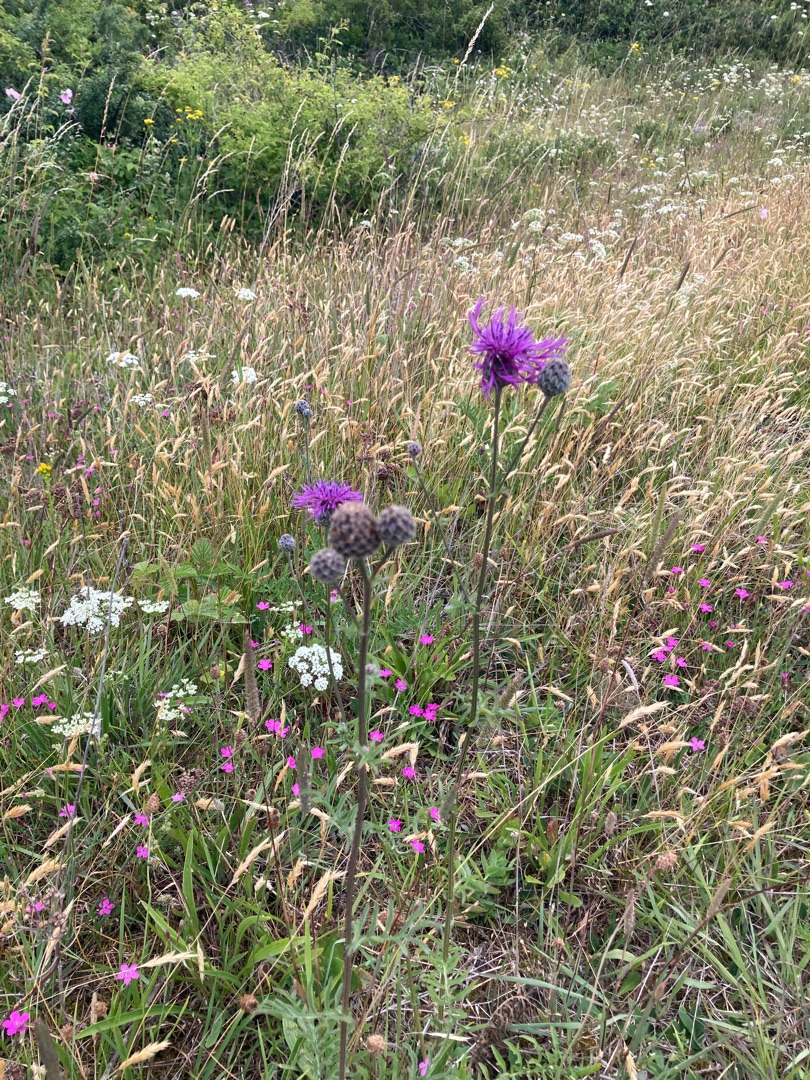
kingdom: Plantae
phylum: Tracheophyta
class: Magnoliopsida
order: Asterales
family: Asteraceae
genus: Centaurea
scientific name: Centaurea scabiosa
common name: Stor knopurt
